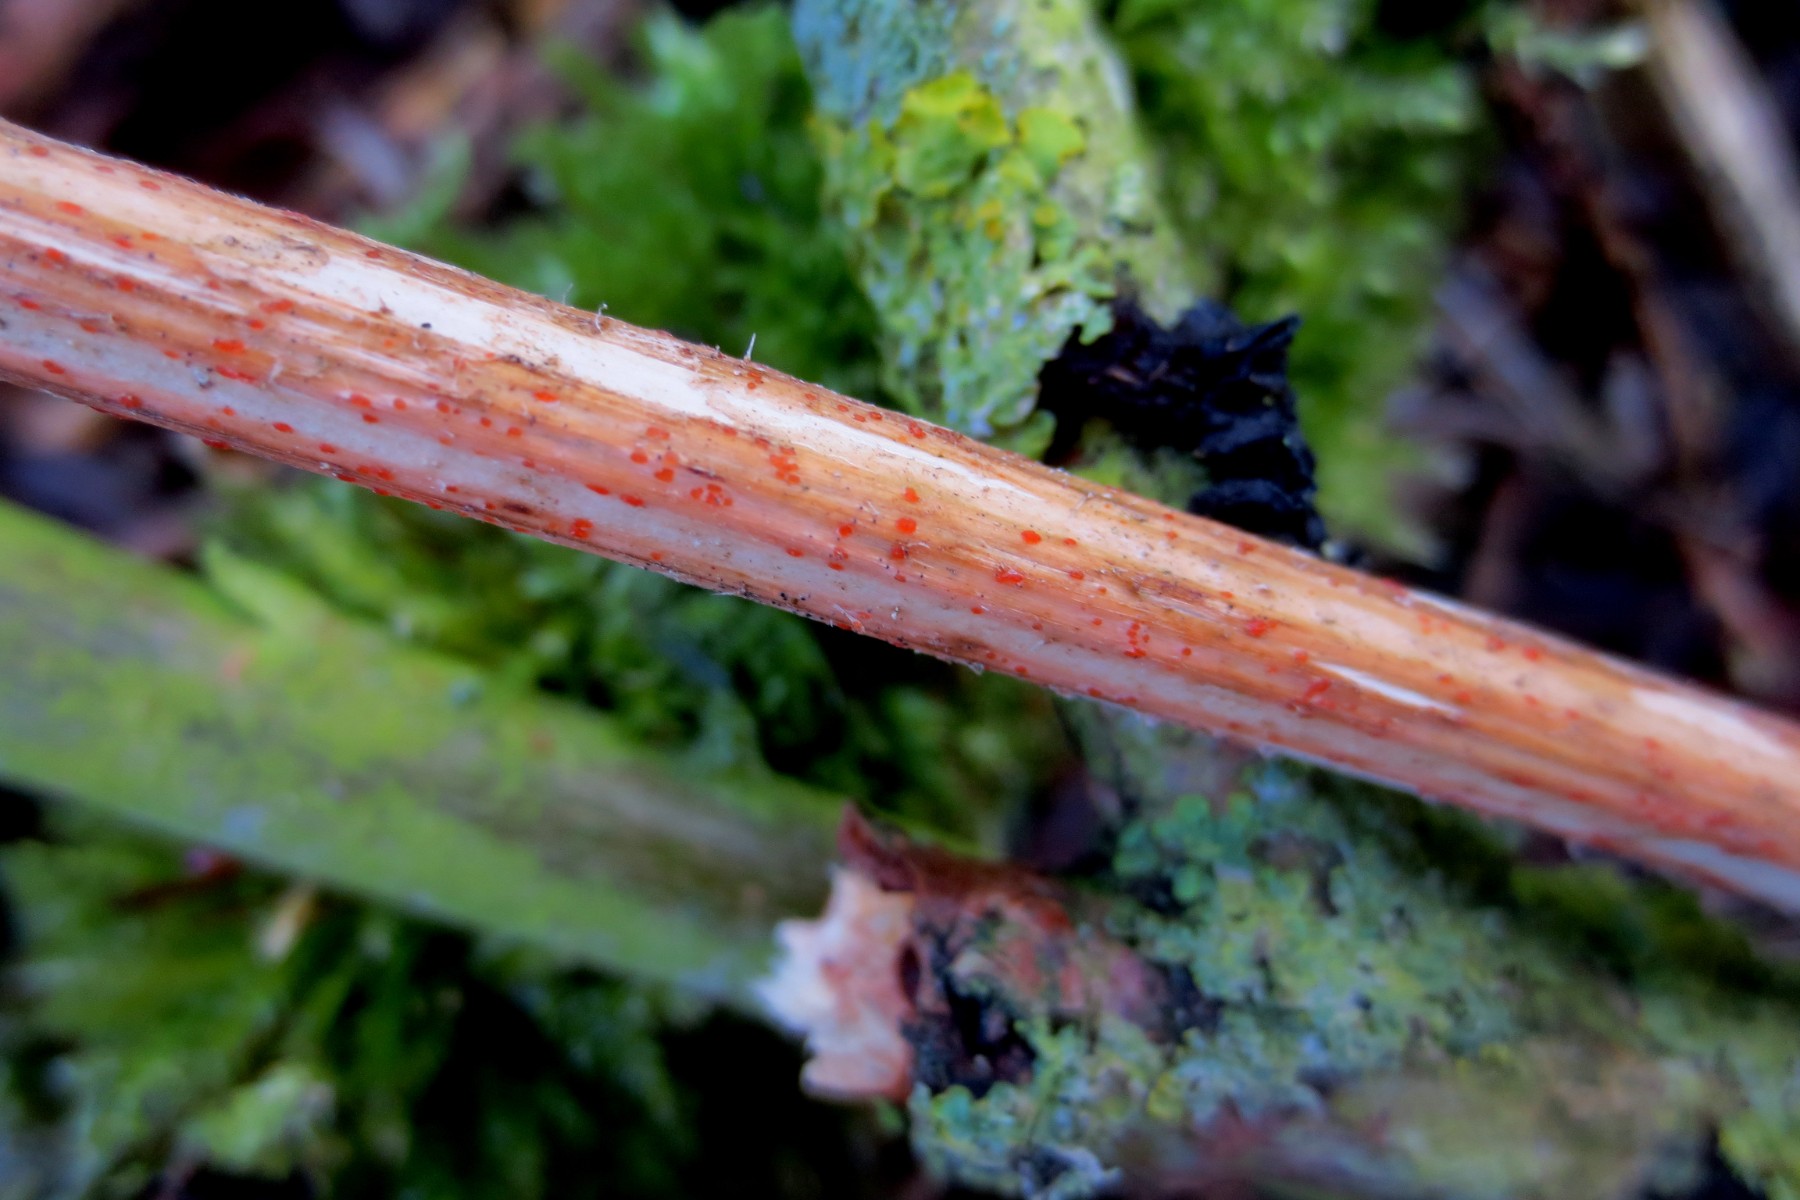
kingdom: Fungi
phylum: Ascomycota
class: Leotiomycetes
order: Helotiales
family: Calloriaceae
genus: Calloria
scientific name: Calloria urticae
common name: nælde-orangeskive
